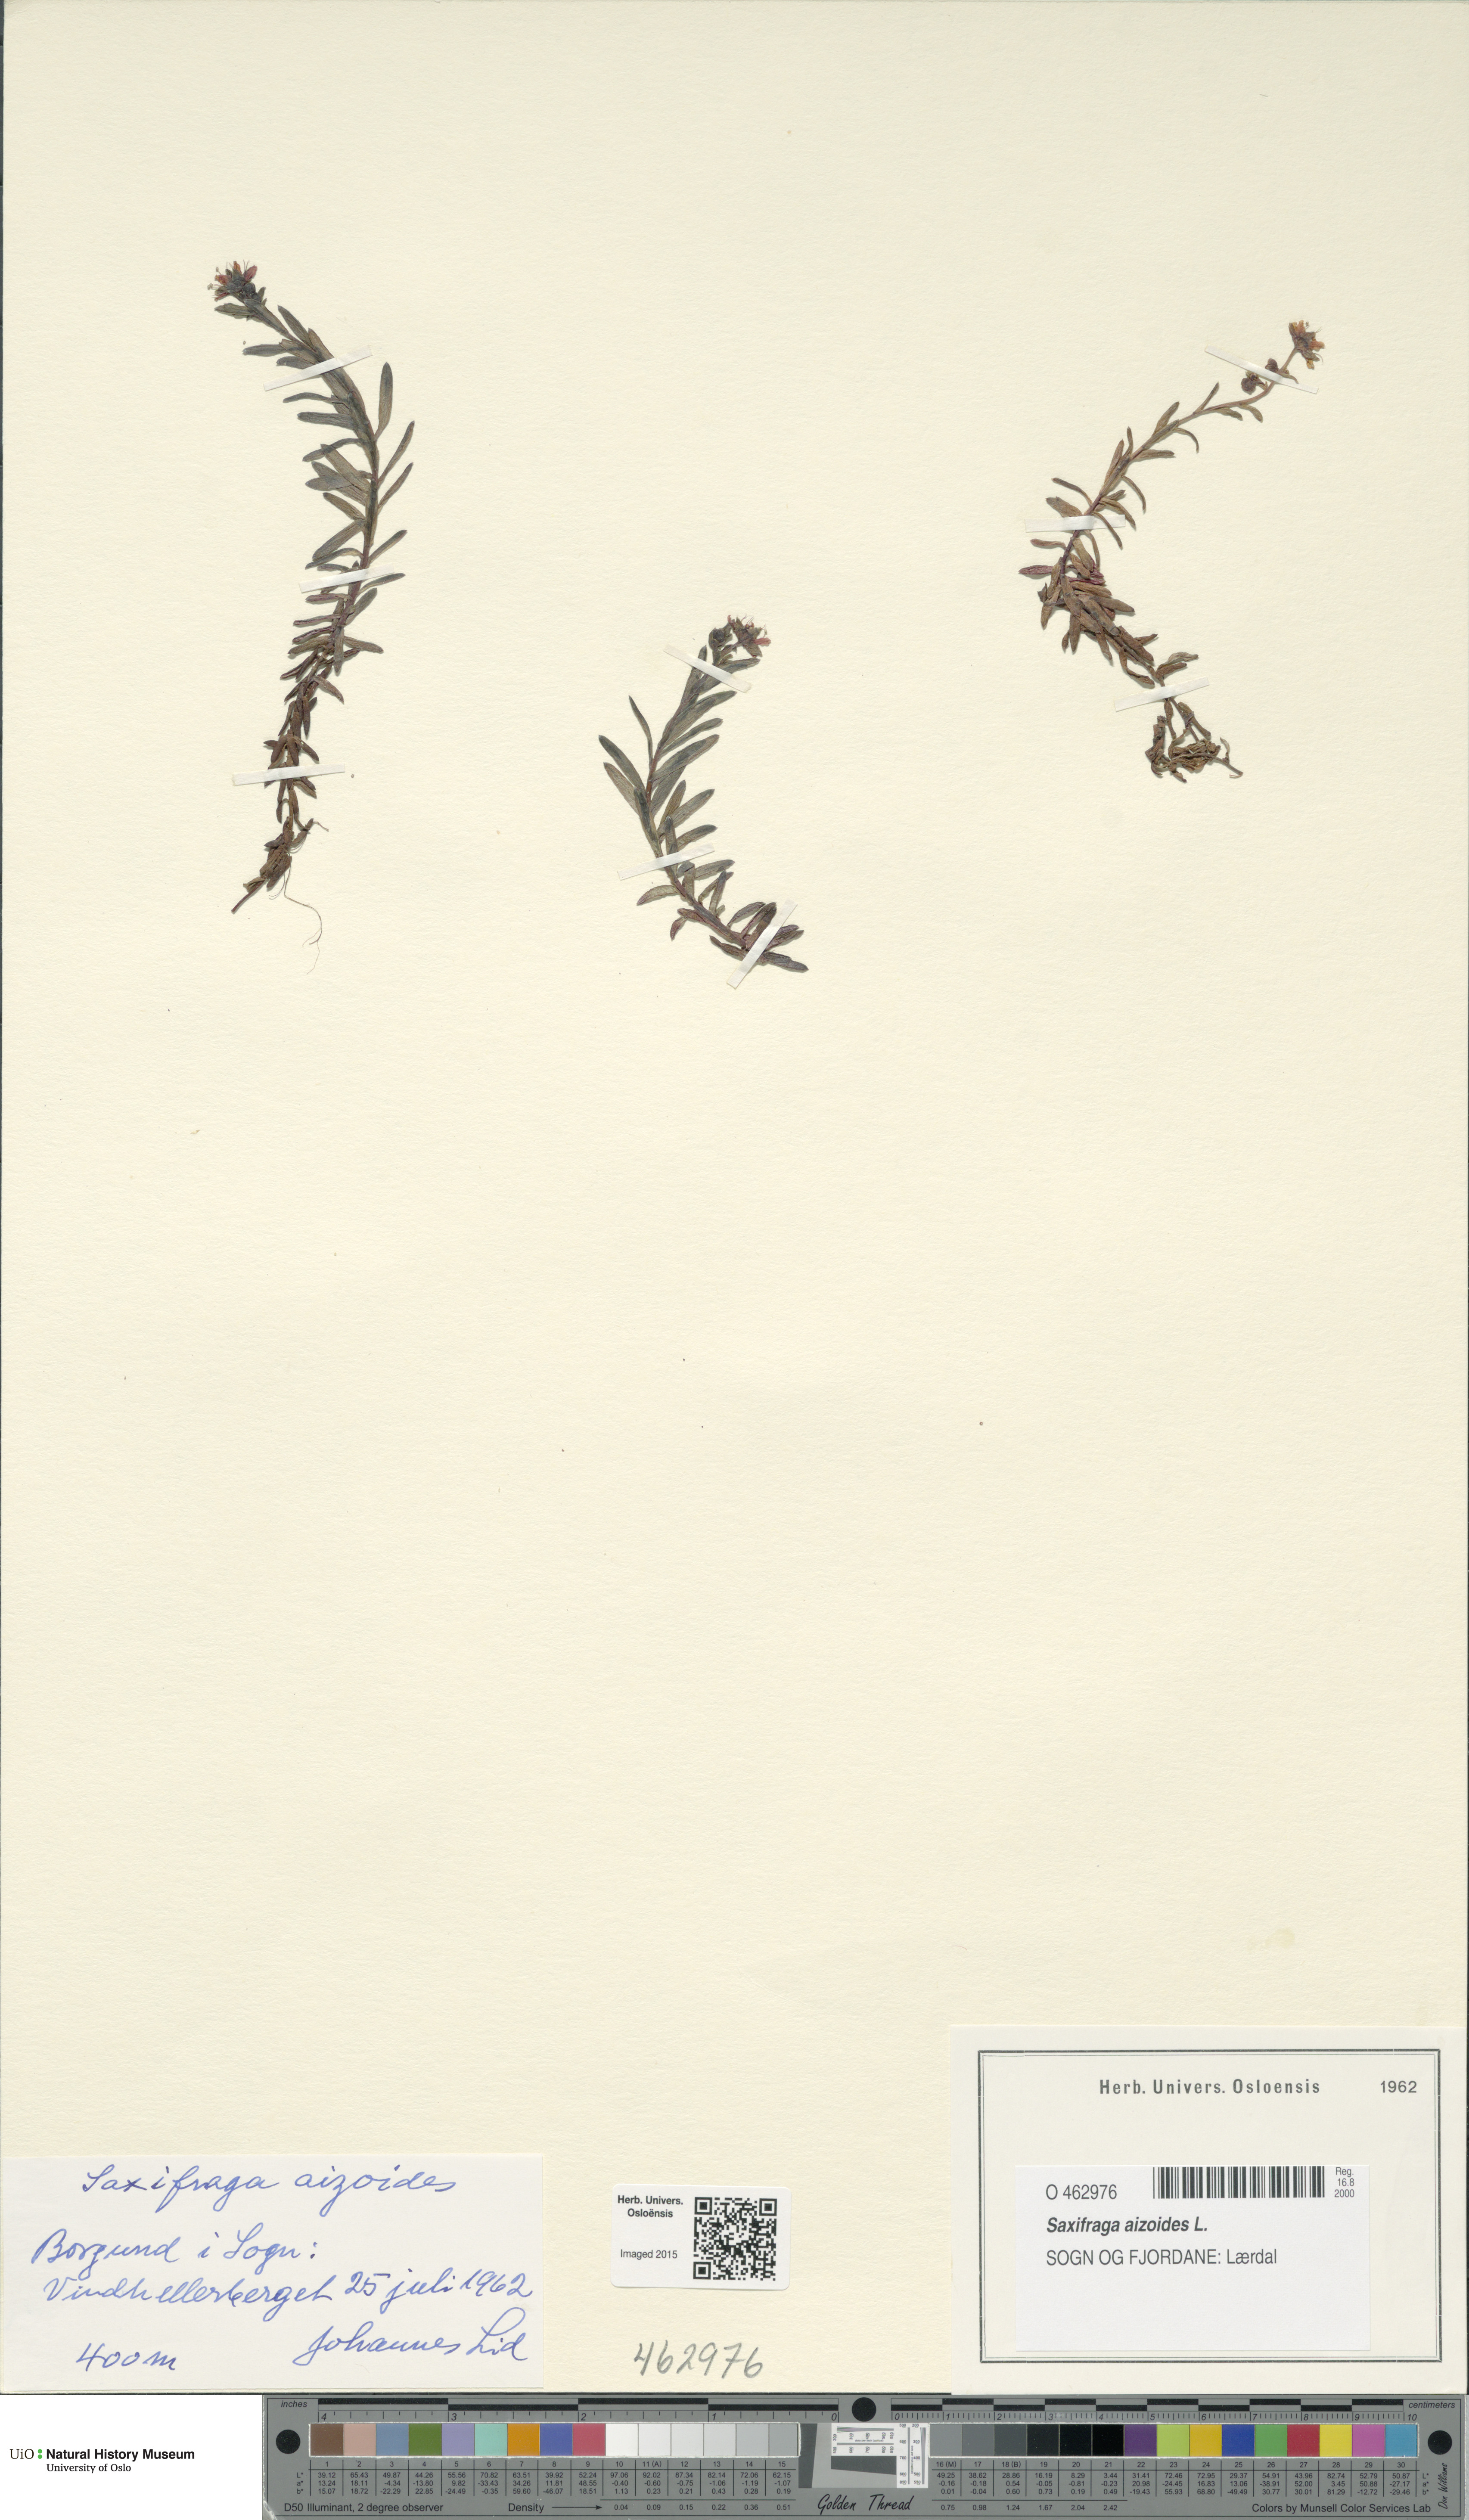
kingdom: Plantae
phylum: Tracheophyta
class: Magnoliopsida
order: Saxifragales
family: Saxifragaceae
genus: Saxifraga
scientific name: Saxifraga aizoides
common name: Yellow mountain saxifrage
